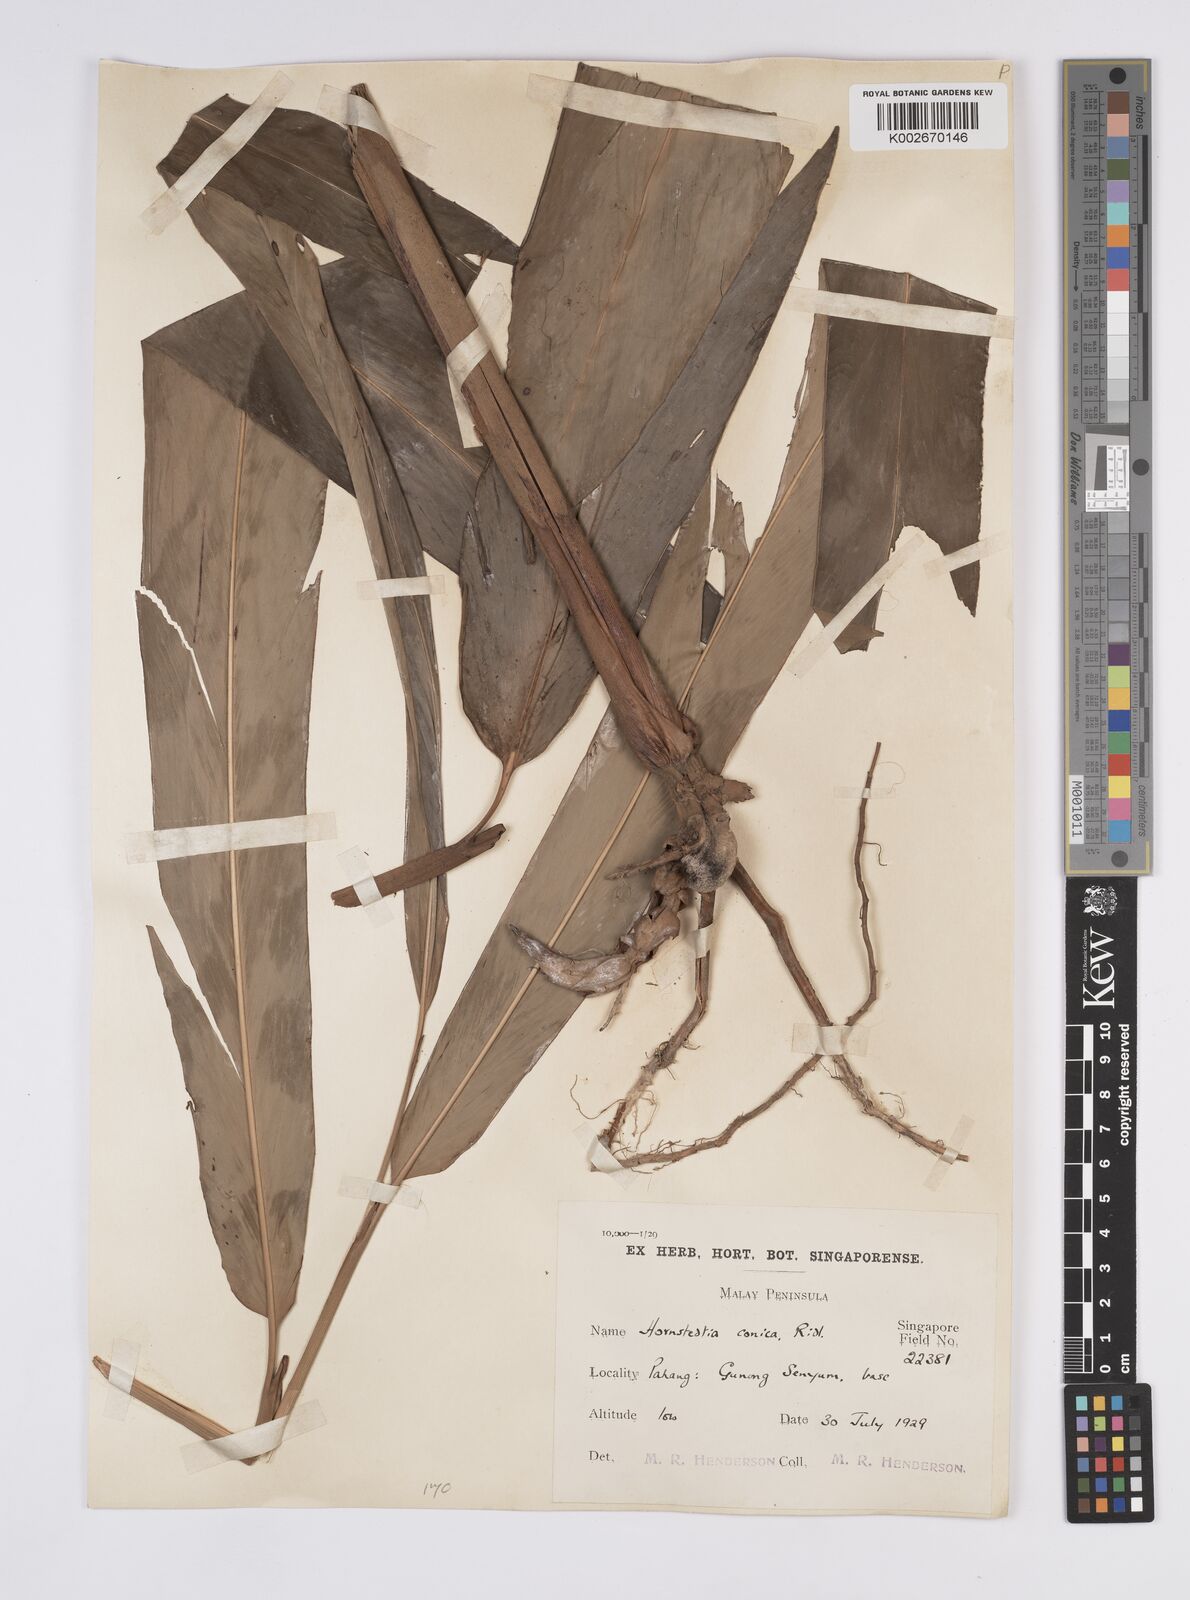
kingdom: Plantae
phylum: Tracheophyta
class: Liliopsida
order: Zingiberales
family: Zingiberaceae
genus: Hornstedtia
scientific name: Hornstedtia conica
